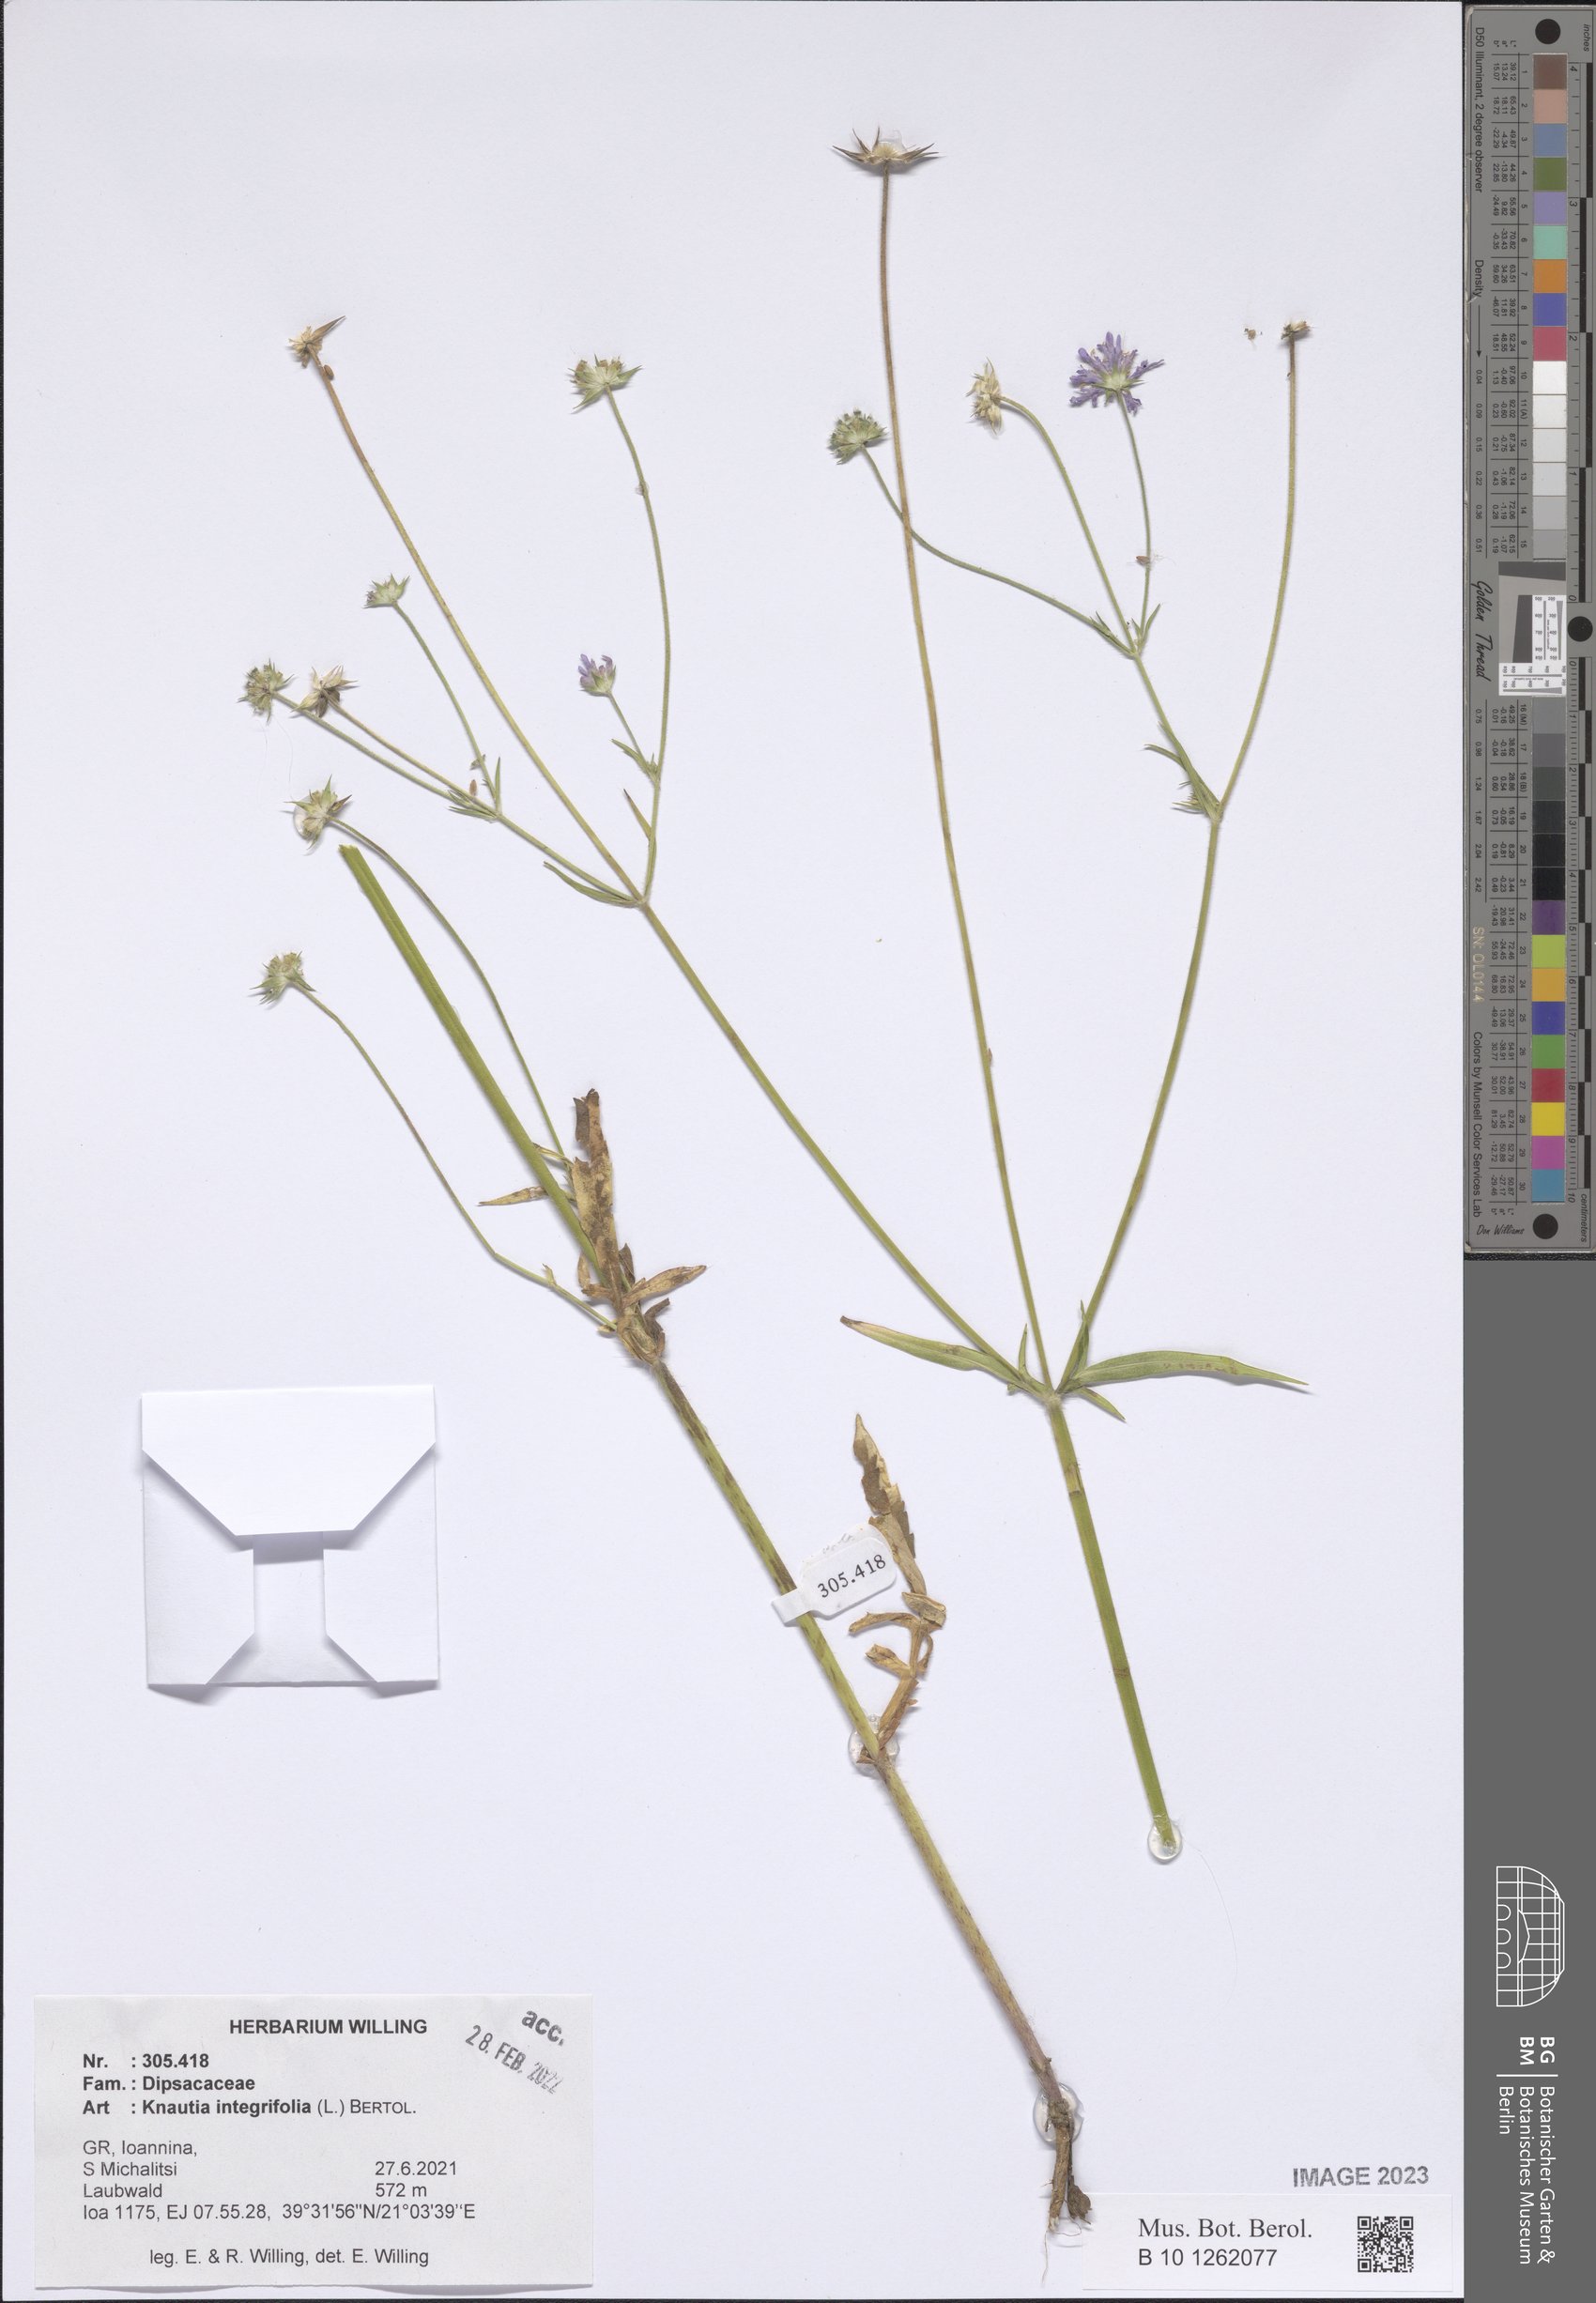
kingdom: Plantae
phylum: Tracheophyta
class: Magnoliopsida
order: Dipsacales
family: Caprifoliaceae
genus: Knautia
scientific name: Knautia integrifolia
